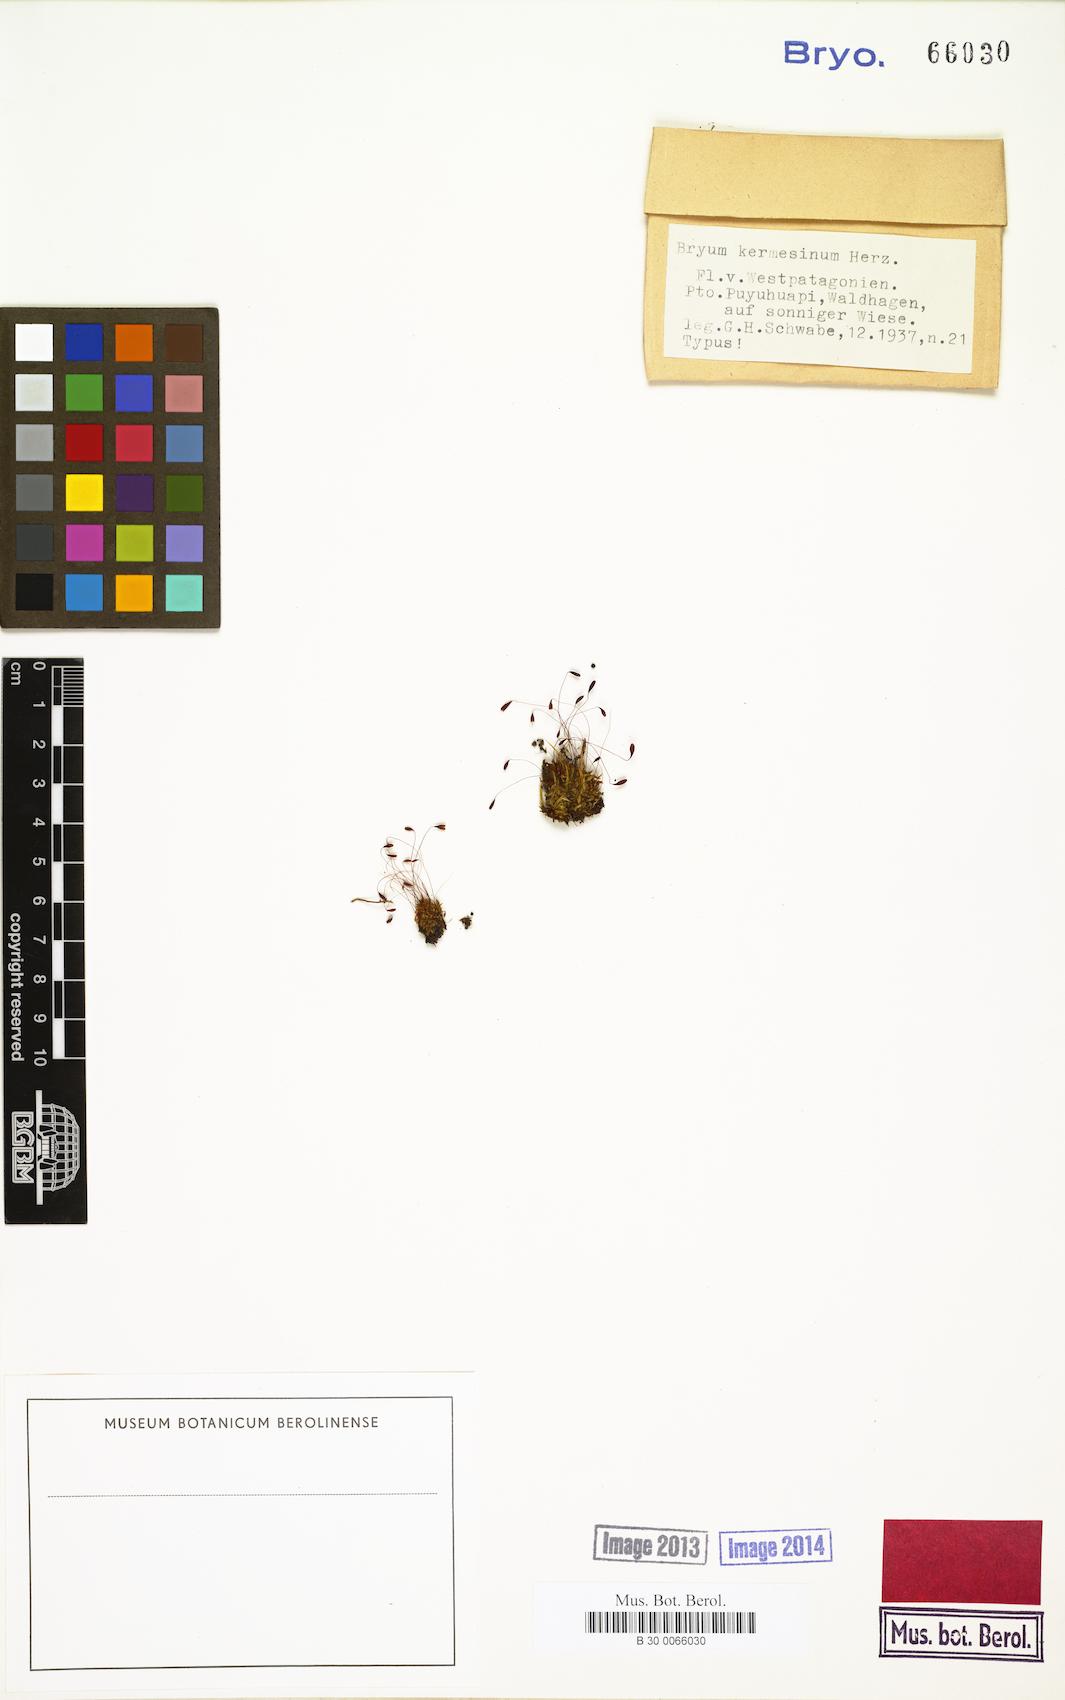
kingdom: Plantae
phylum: Bryophyta
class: Bryopsida
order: Bryales
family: Bryaceae
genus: Gemmabryum
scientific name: Gemmabryum subapiculatum
